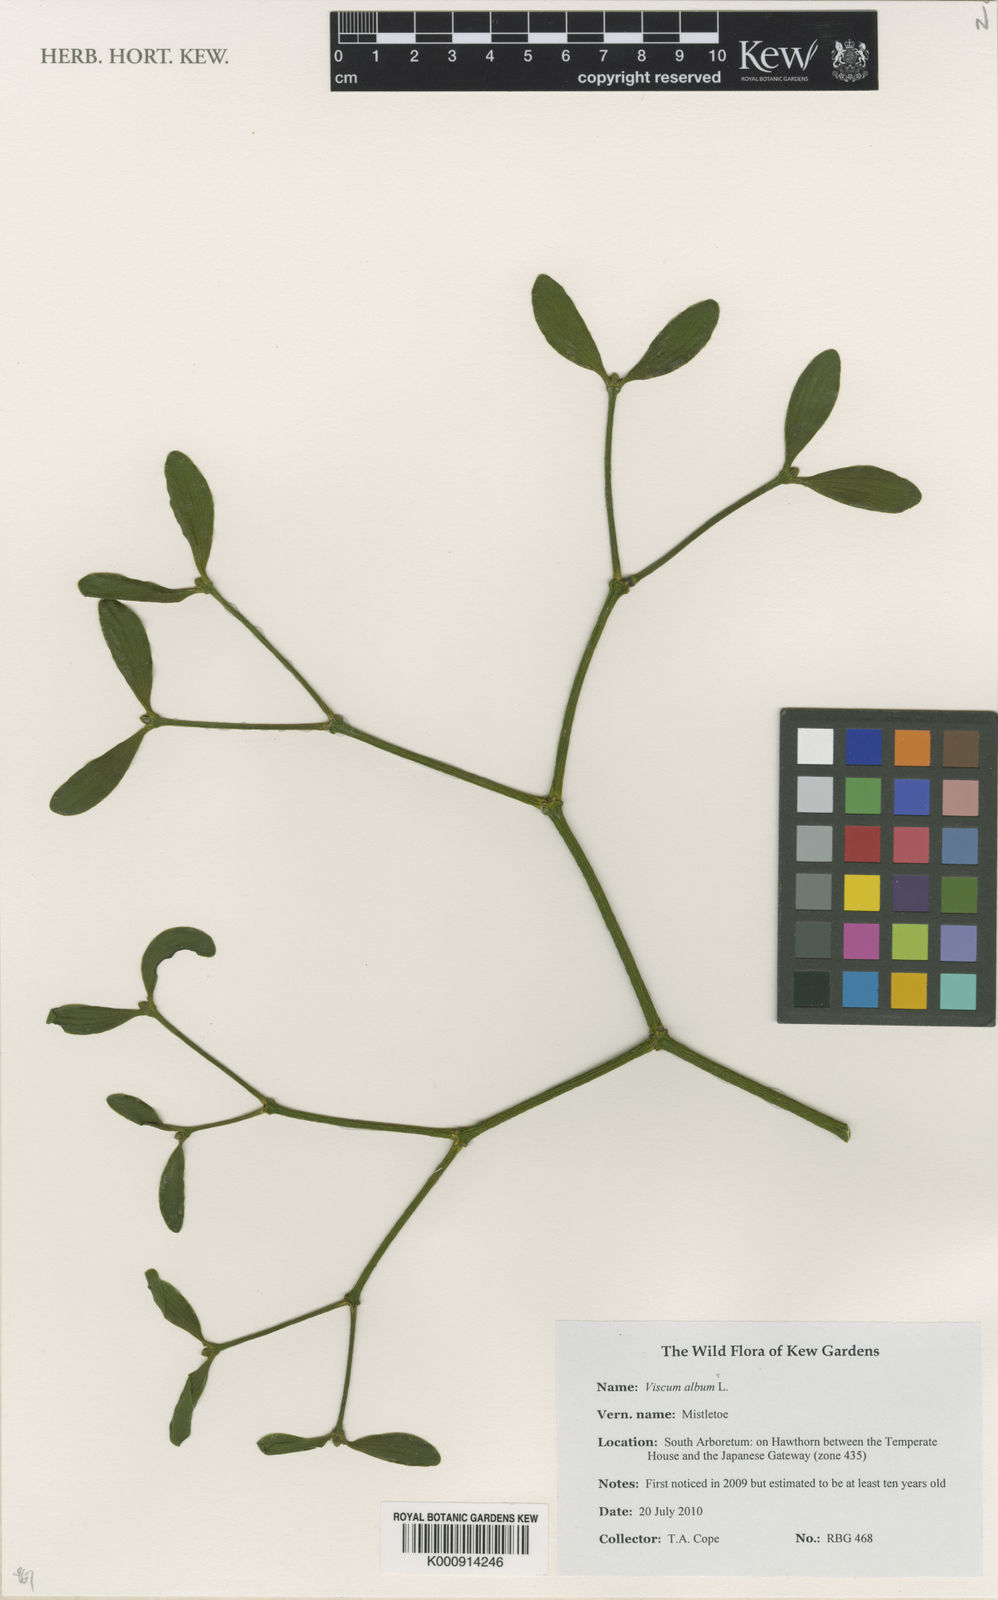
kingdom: Plantae
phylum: Tracheophyta
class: Magnoliopsida
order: Santalales
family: Viscaceae
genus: Viscum
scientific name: Viscum album
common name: Mistletoe
